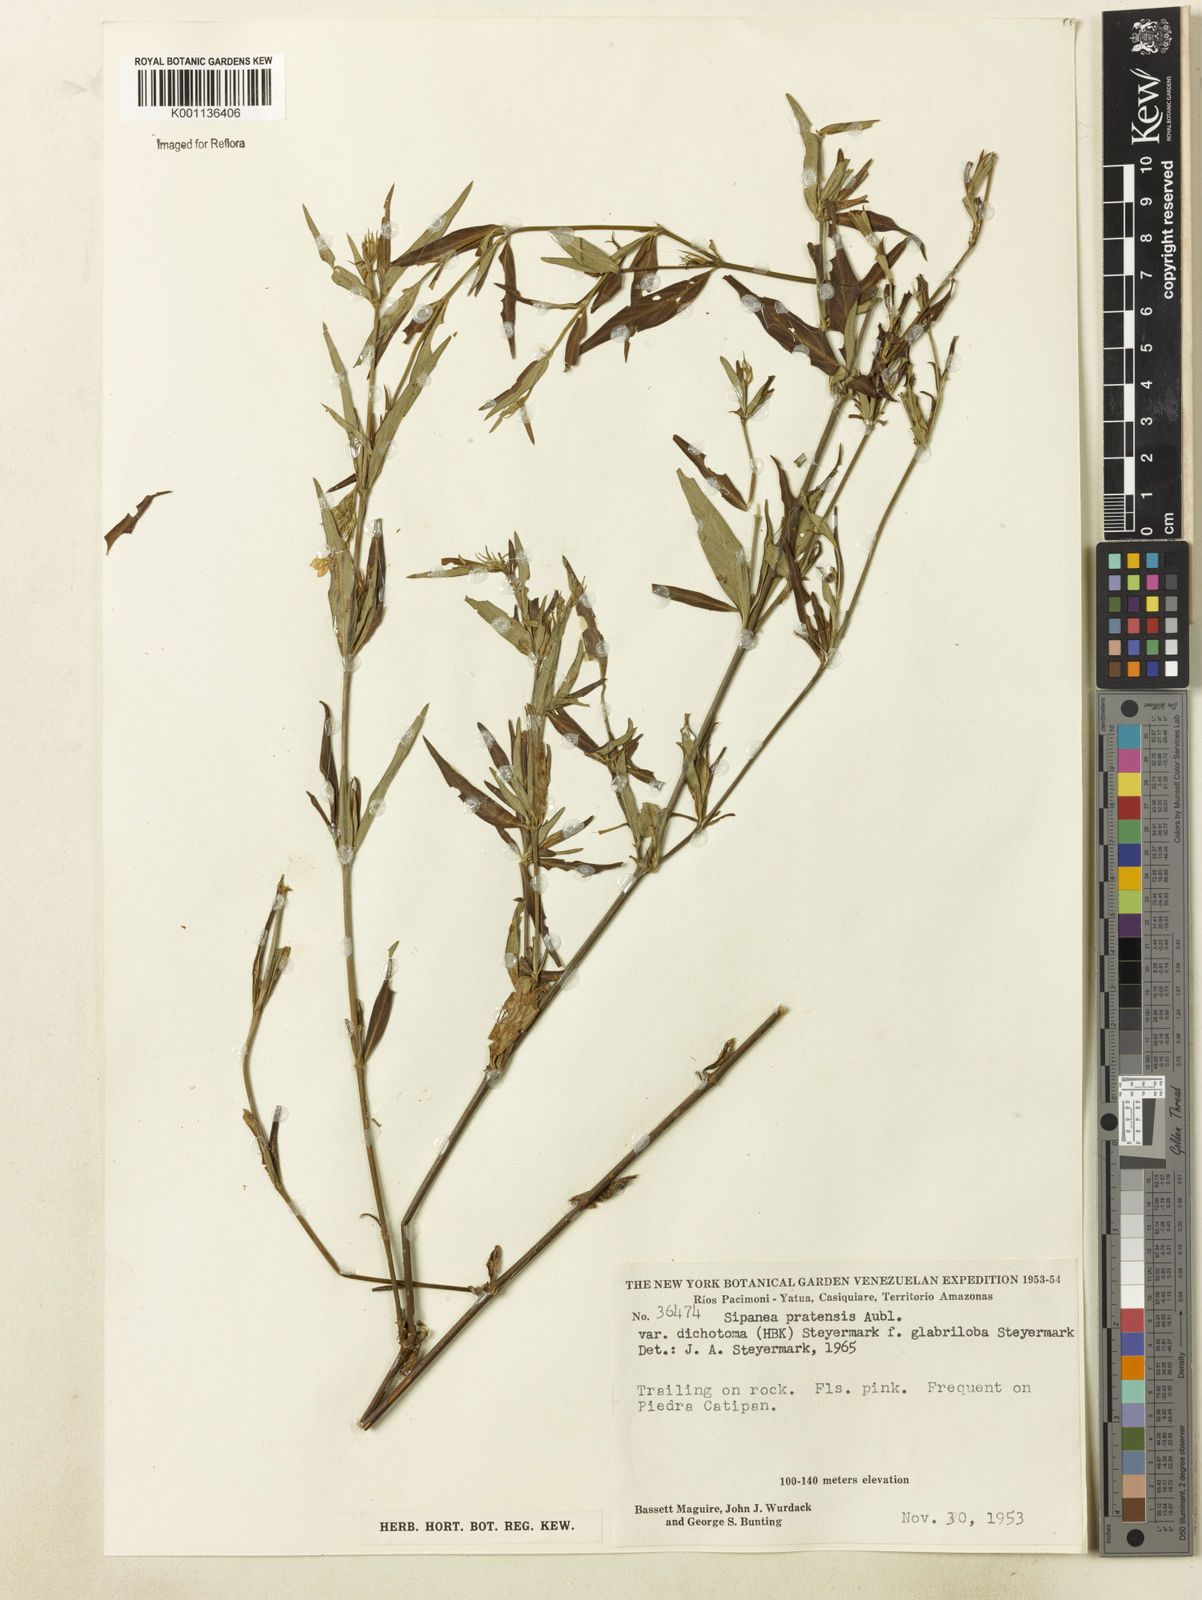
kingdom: Plantae
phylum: Tracheophyta
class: Magnoliopsida
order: Gentianales
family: Rubiaceae
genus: Sipanea
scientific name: Sipanea pratensis
